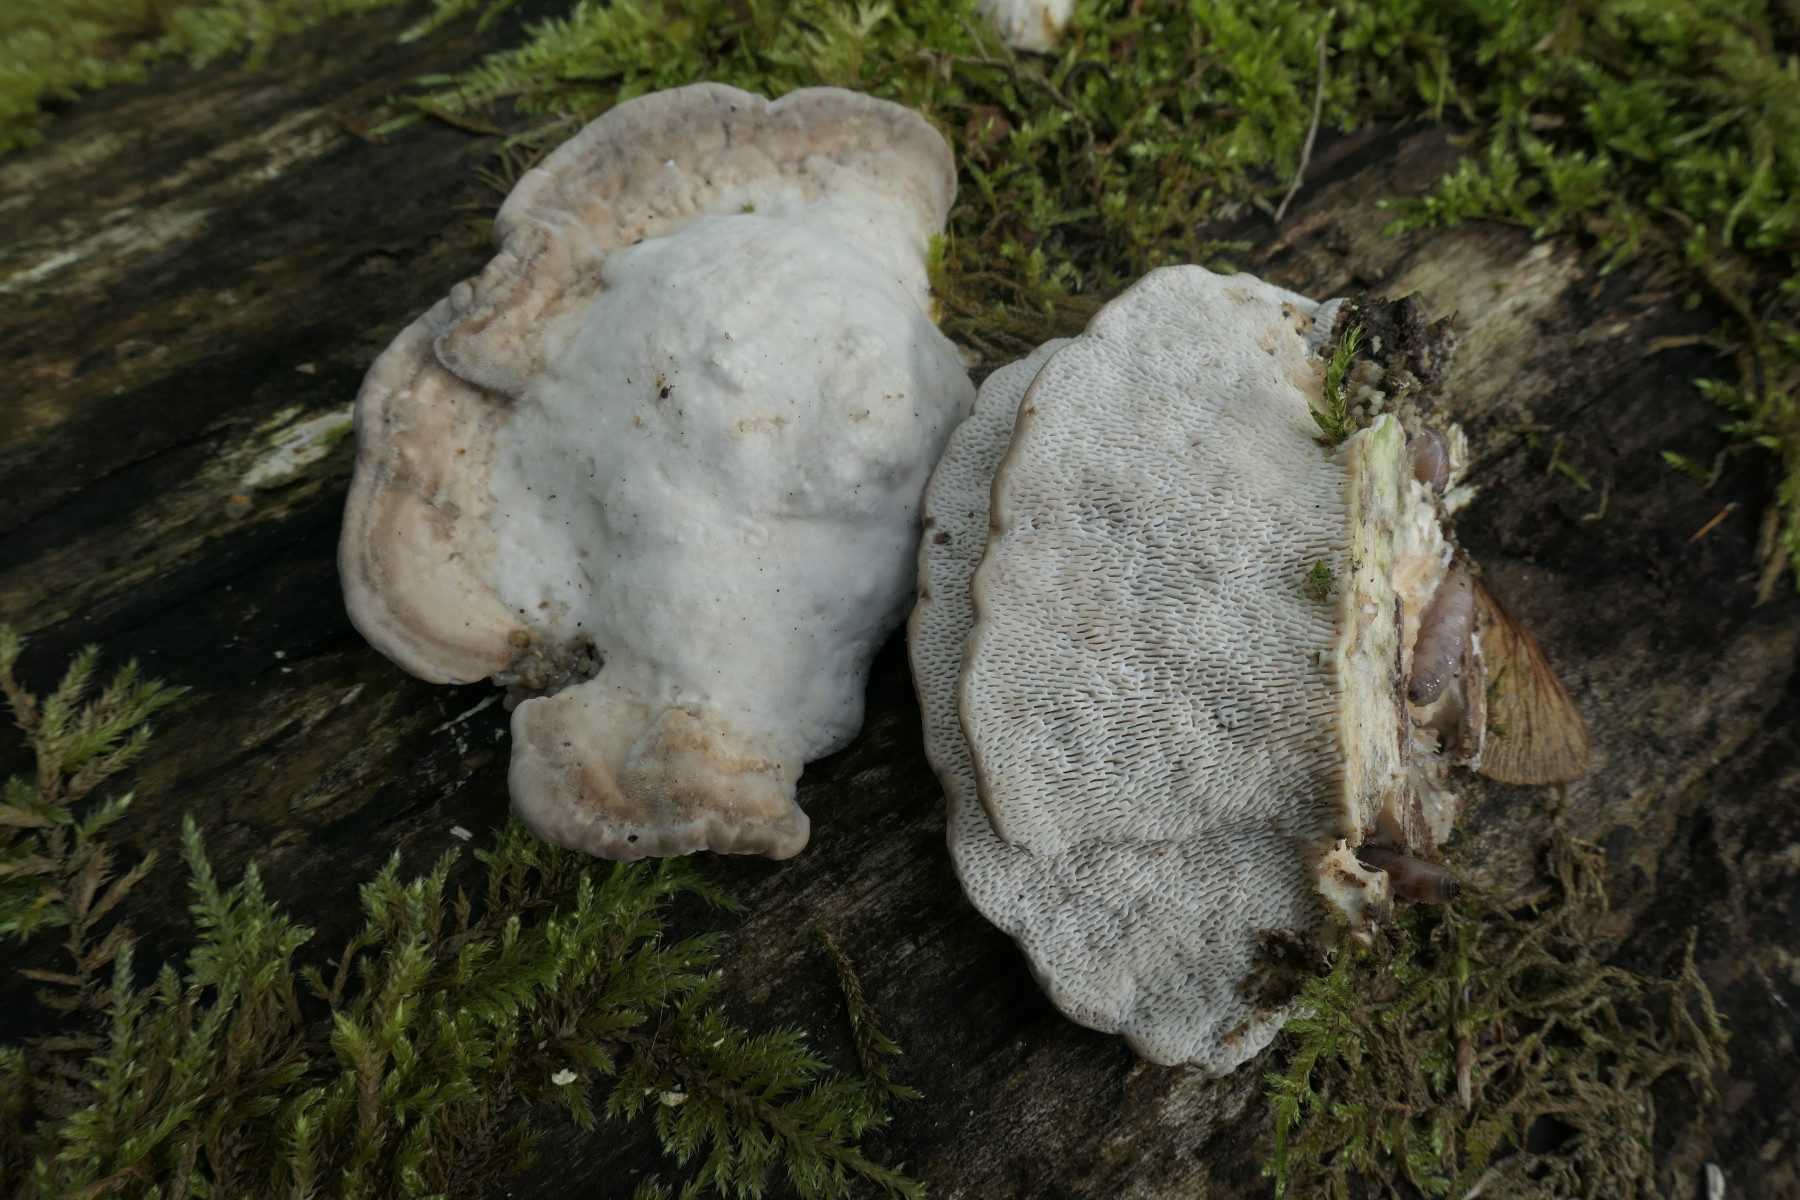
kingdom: Fungi
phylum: Basidiomycota
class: Agaricomycetes
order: Polyporales
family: Polyporaceae
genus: Trametes
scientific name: Trametes gibbosa
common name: puklet læderporesvamp
